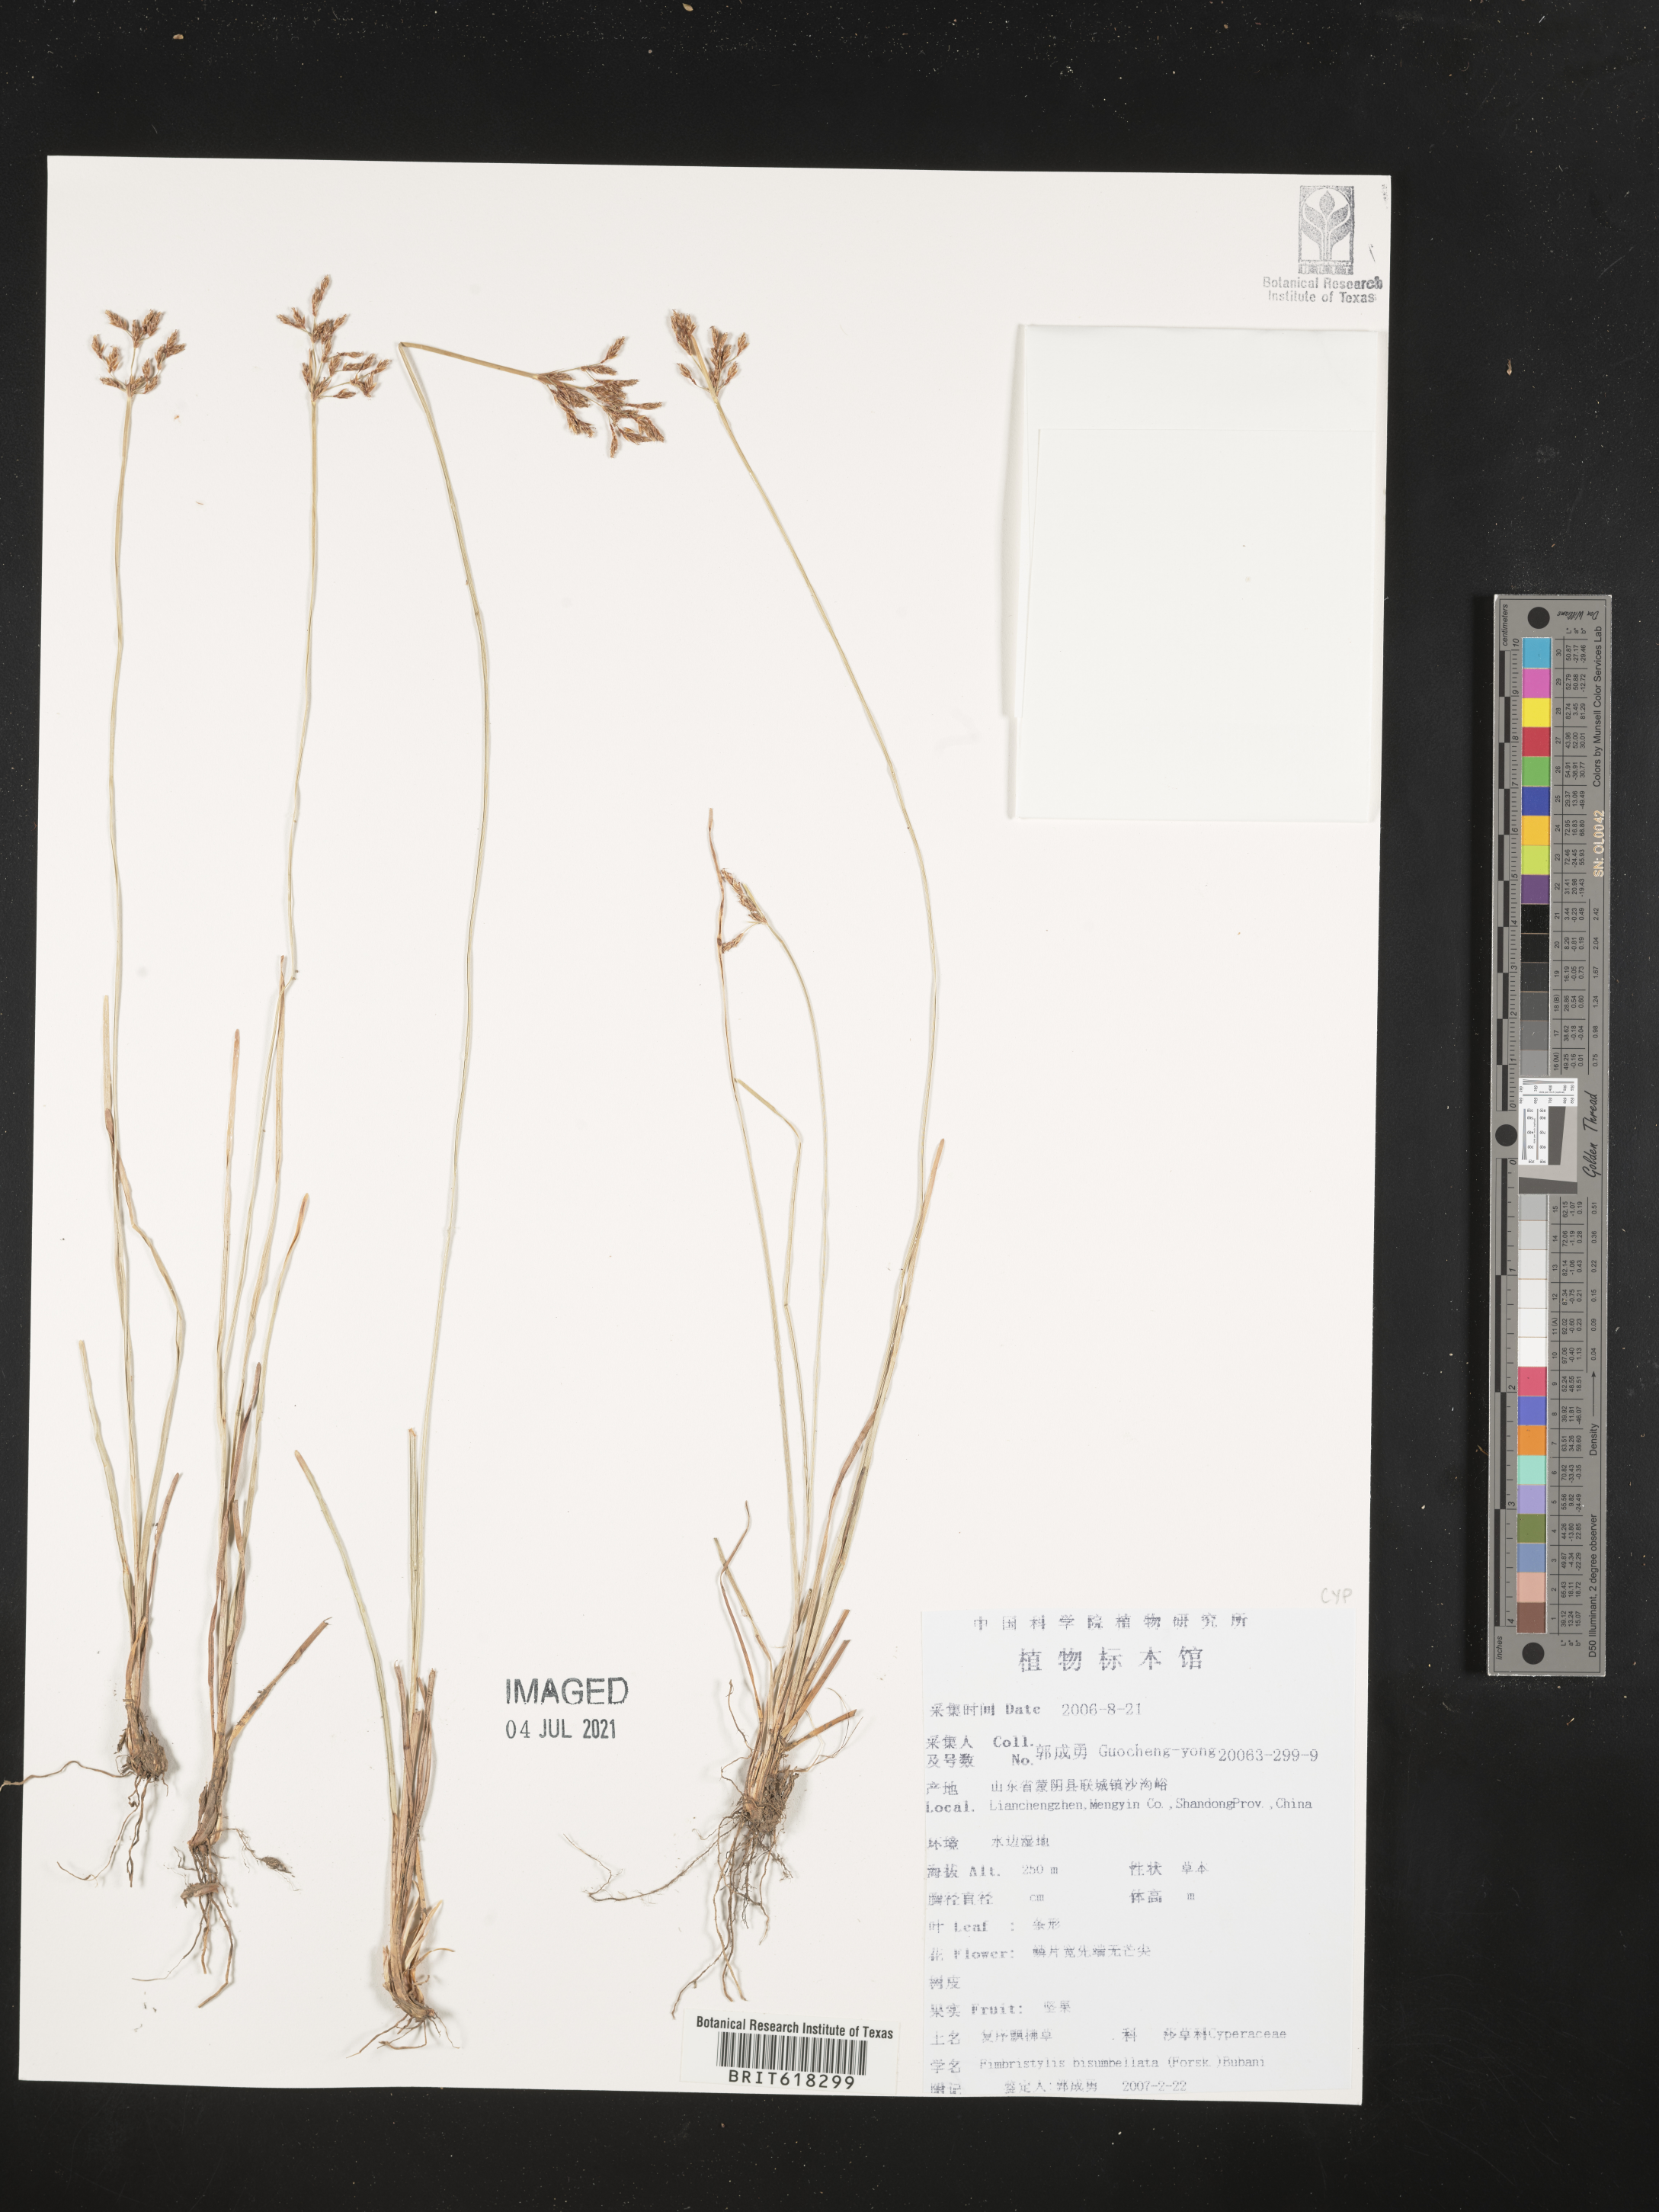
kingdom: Plantae
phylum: Tracheophyta
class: Liliopsida
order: Poales
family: Cyperaceae
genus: Fimbristylis
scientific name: Fimbristylis bisumbellata
